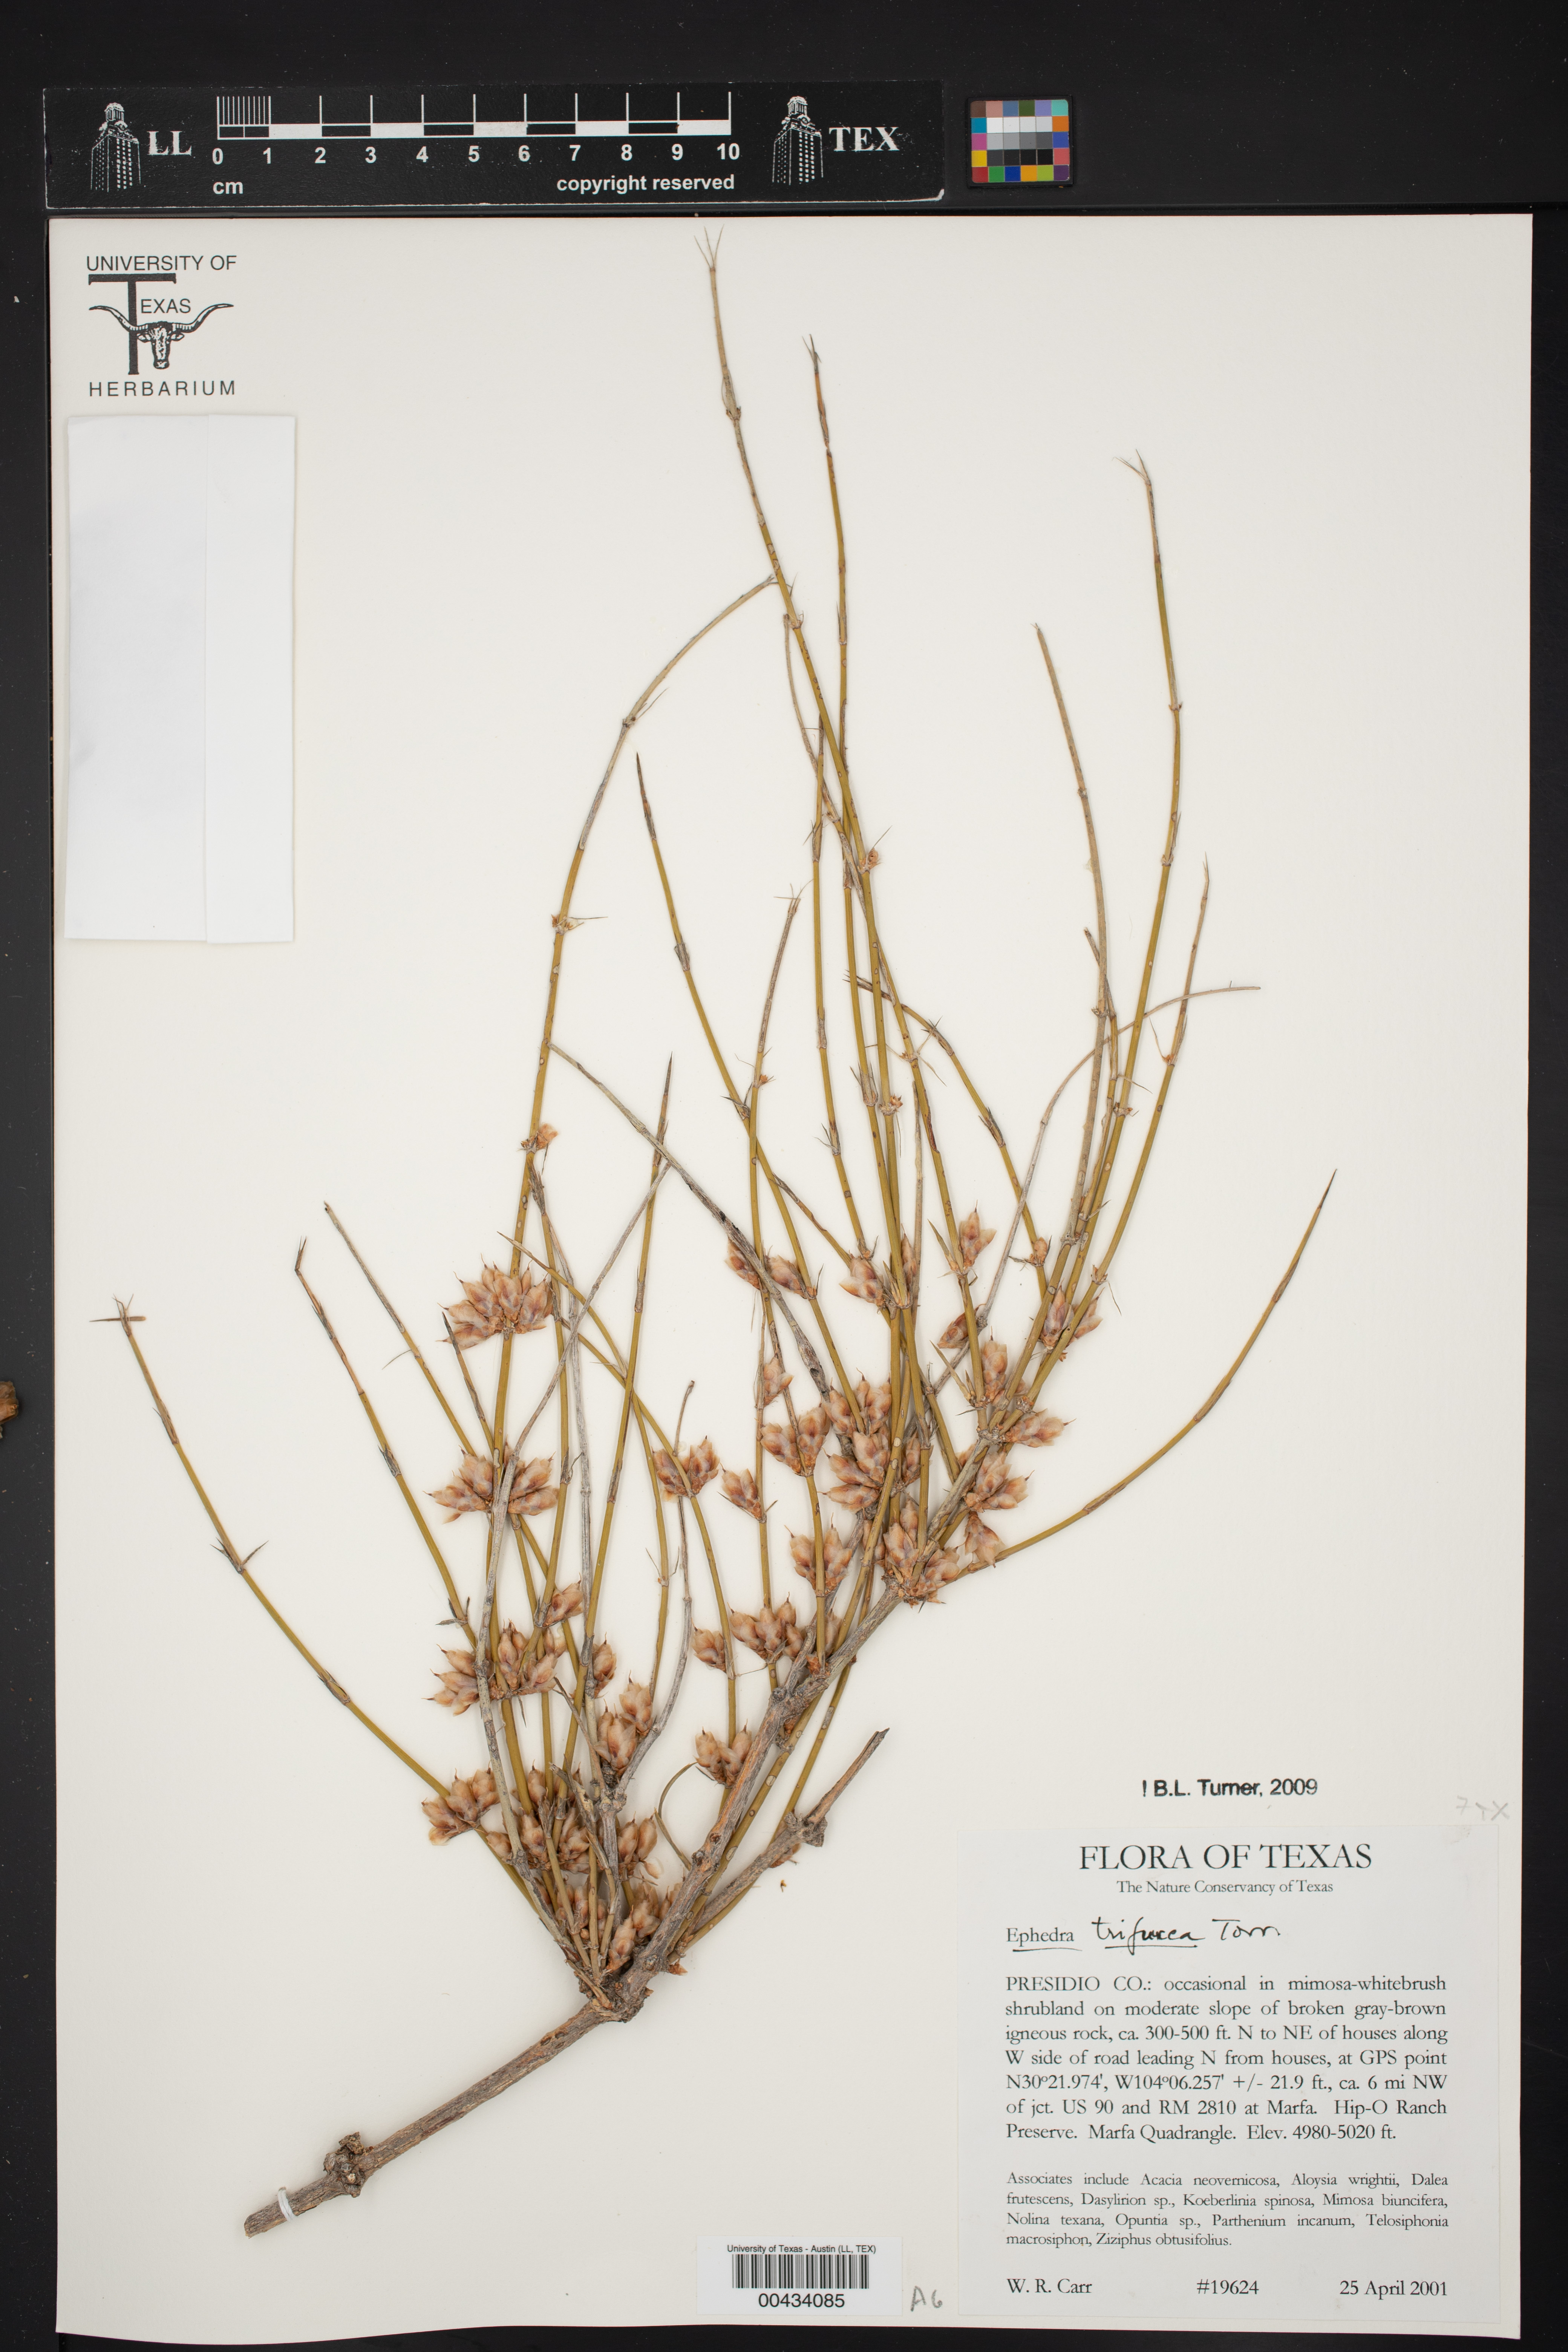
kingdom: Plantae
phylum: Tracheophyta
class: Gnetopsida
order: Ephedrales
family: Ephedraceae
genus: Ephedra
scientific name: Ephedra trifurca
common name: Mexican-tea
